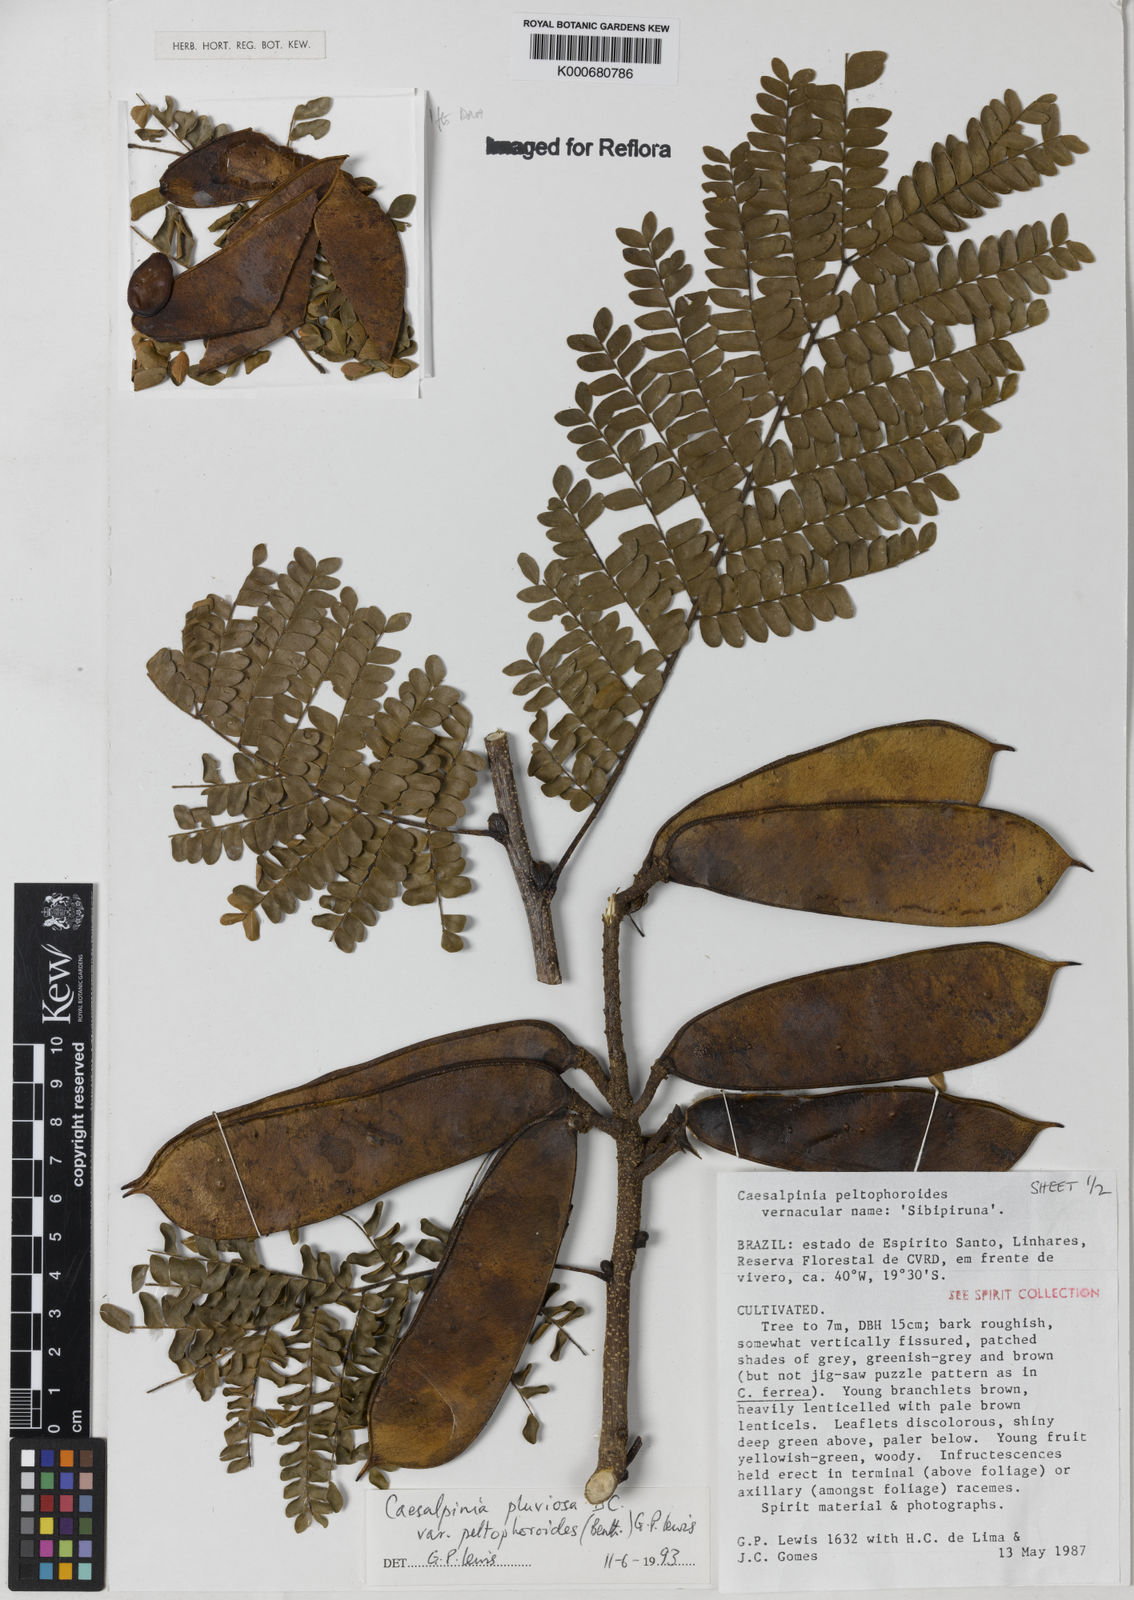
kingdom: Plantae
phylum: Tracheophyta
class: Magnoliopsida
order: Fabales
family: Fabaceae
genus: Cenostigma
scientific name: Cenostigma pluviosum
